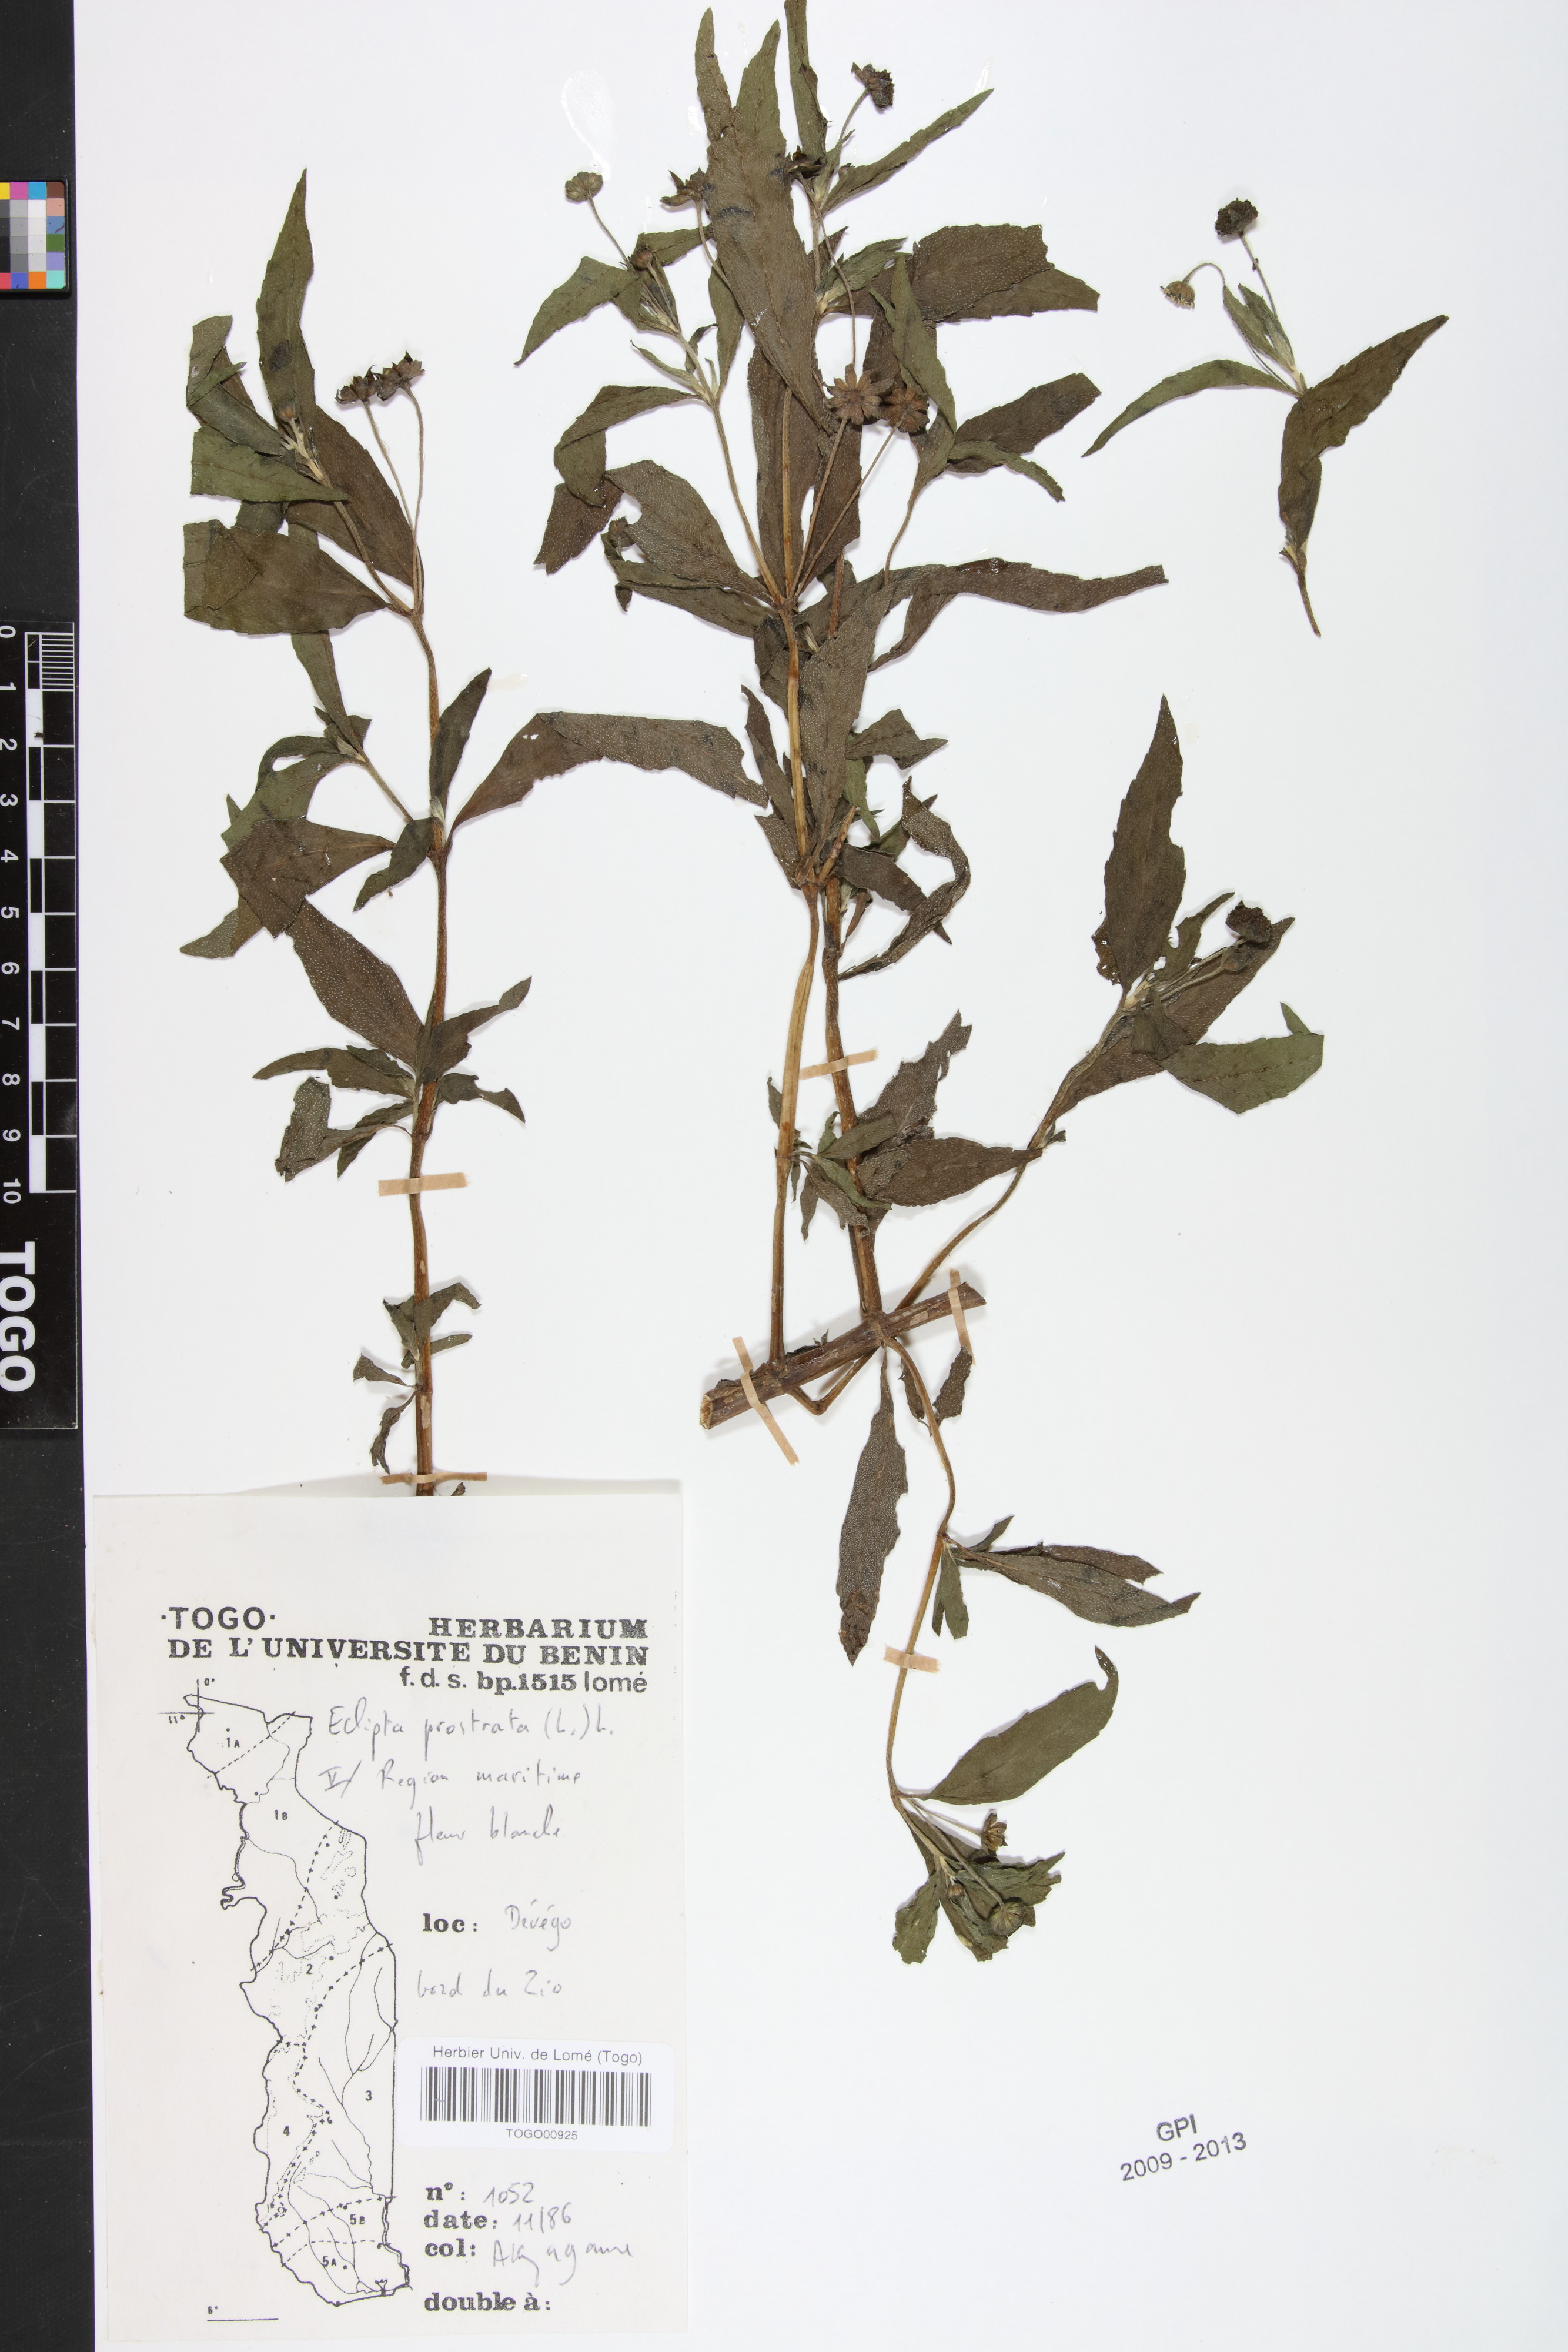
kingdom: Plantae
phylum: Tracheophyta
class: Magnoliopsida
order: Asterales
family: Asteraceae
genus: Eclipta
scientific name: Eclipta prostrata
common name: False daisy
